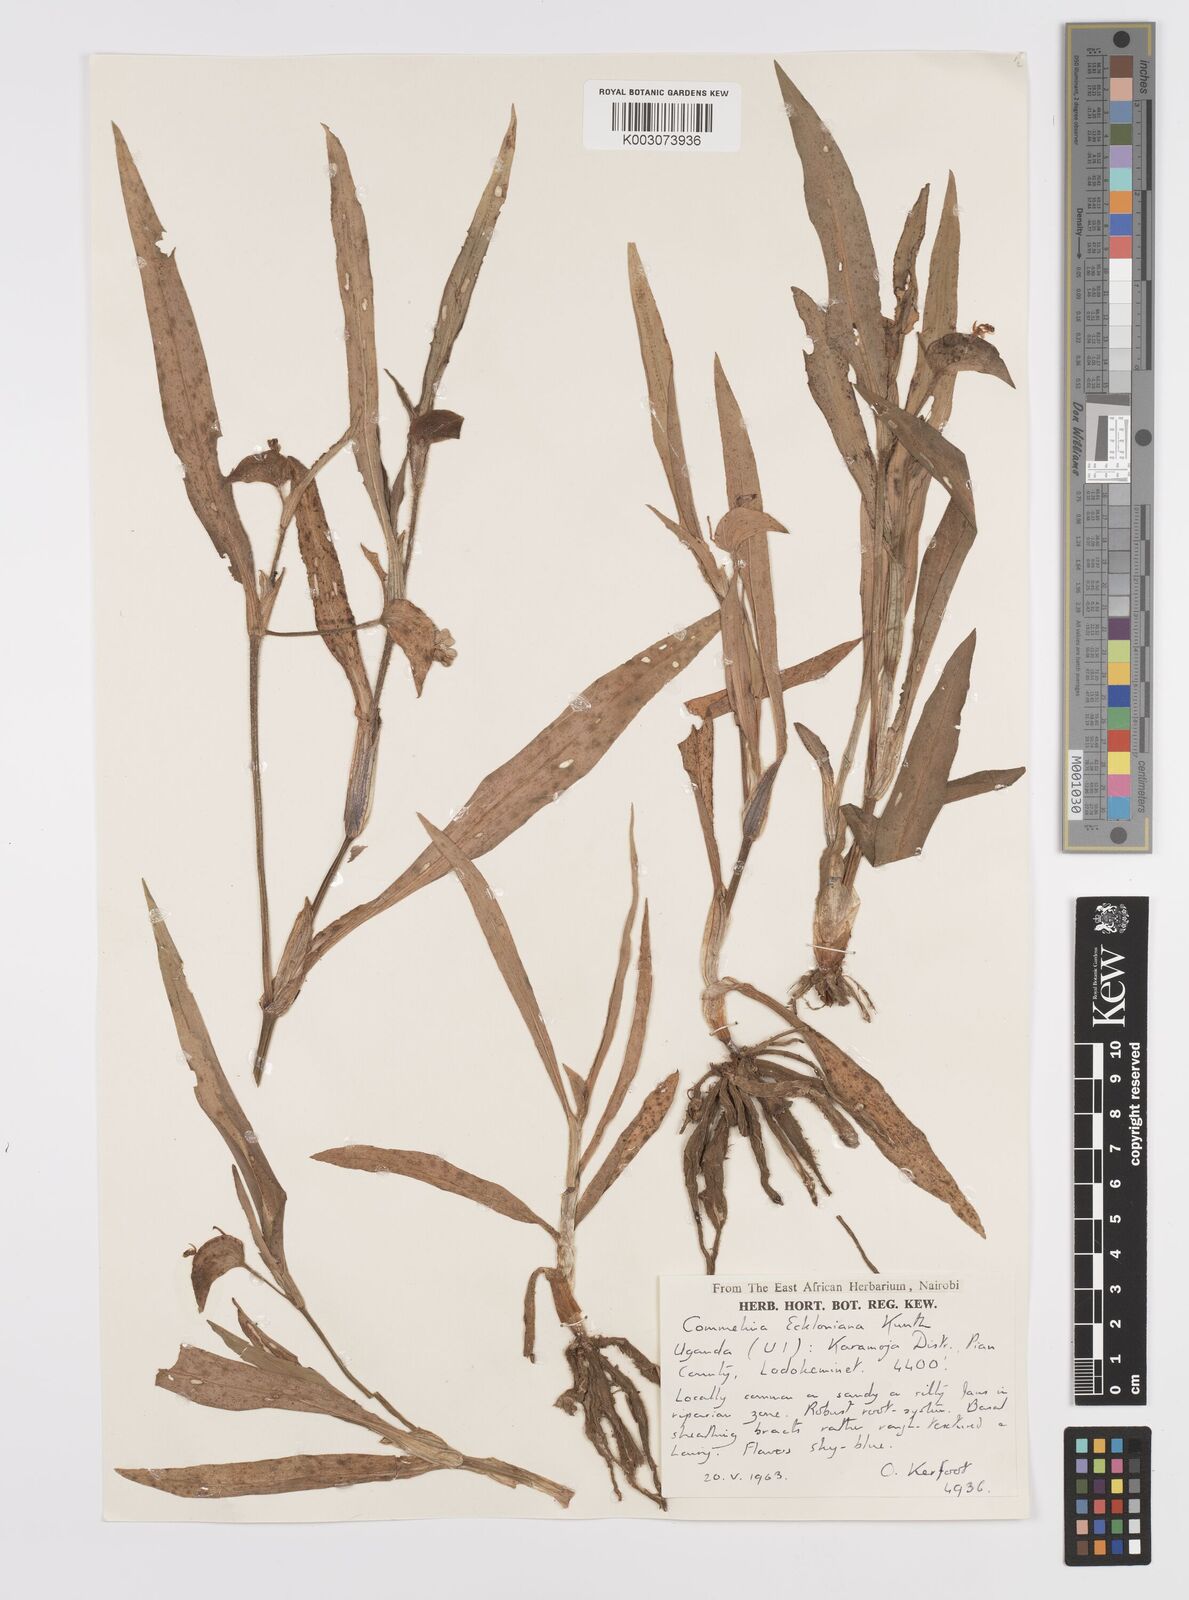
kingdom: Plantae
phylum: Tracheophyta
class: Liliopsida
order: Commelinales
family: Commelinaceae
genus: Commelina
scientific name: Commelina eckloniana
